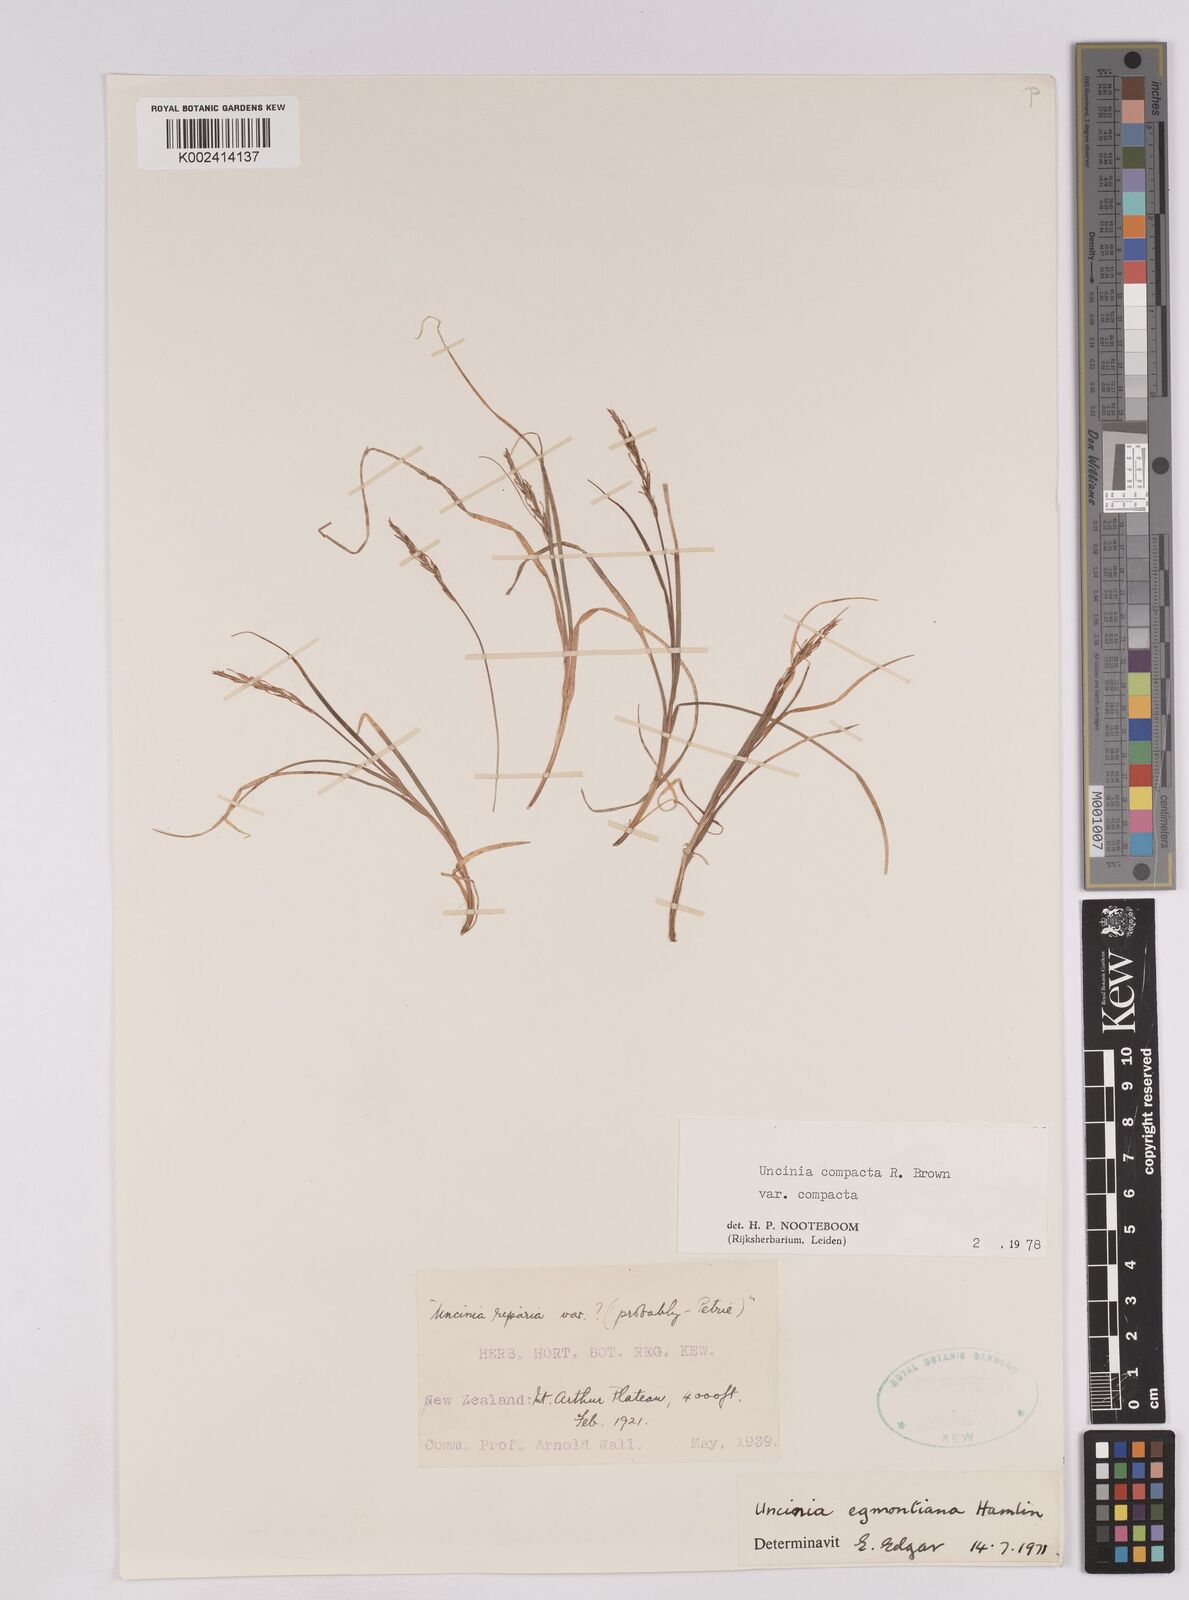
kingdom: Plantae
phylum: Tracheophyta
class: Liliopsida
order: Poales
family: Cyperaceae
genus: Carex
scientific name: Carex austrocompacta
